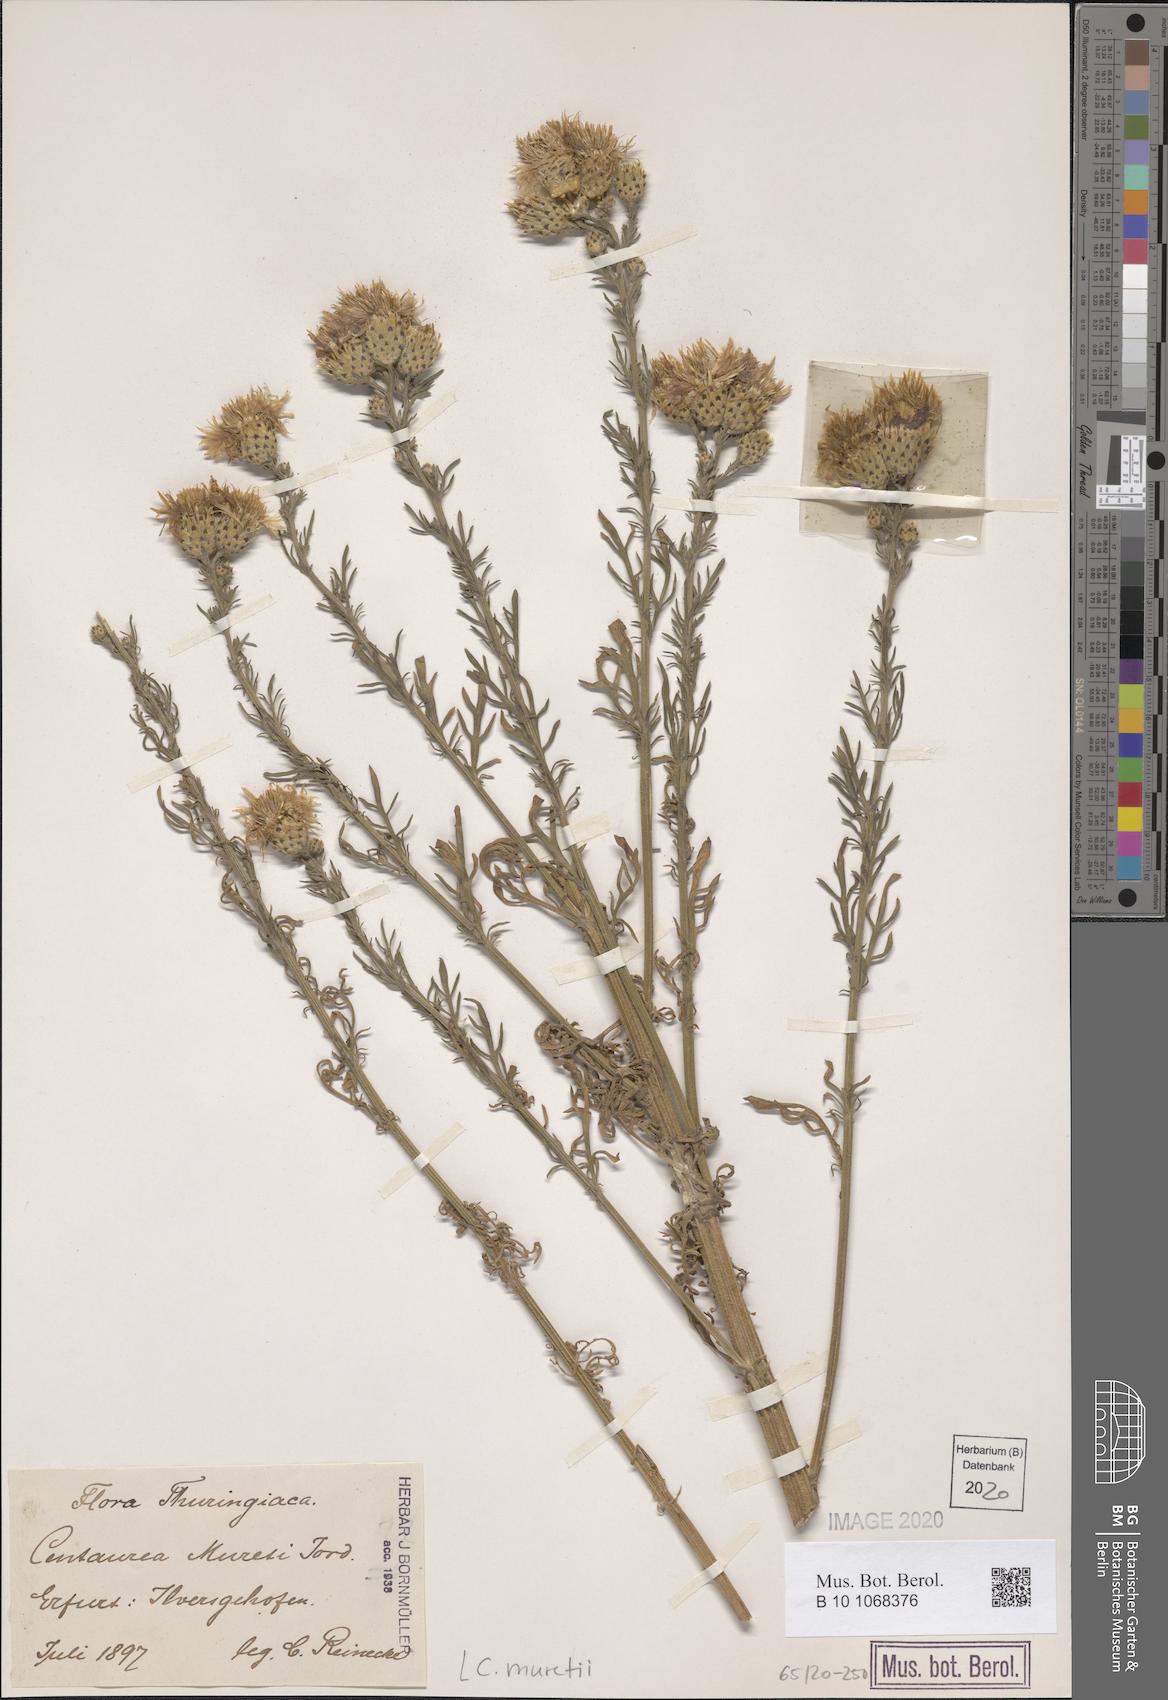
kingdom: Plantae
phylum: Tracheophyta
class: Magnoliopsida
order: Asterales
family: Asteraceae
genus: Centaurea
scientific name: Centaurea stoebe
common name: Spotted knapweed
